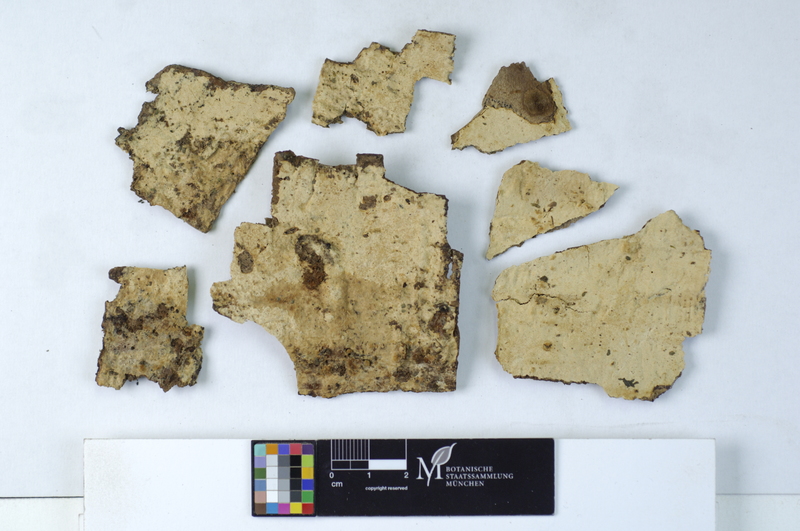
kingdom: Fungi
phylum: Basidiomycota
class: Agaricomycetes
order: Hymenochaetales
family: Oxyporaceae
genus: Oxyporus
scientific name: Oxyporus obducens
